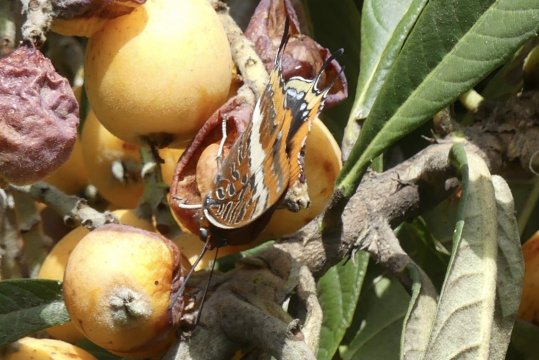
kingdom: Animalia
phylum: Arthropoda
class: Insecta
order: Lepidoptera
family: Nymphalidae
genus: Charaxes
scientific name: Charaxes jasius
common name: Two-tailed Pasha
